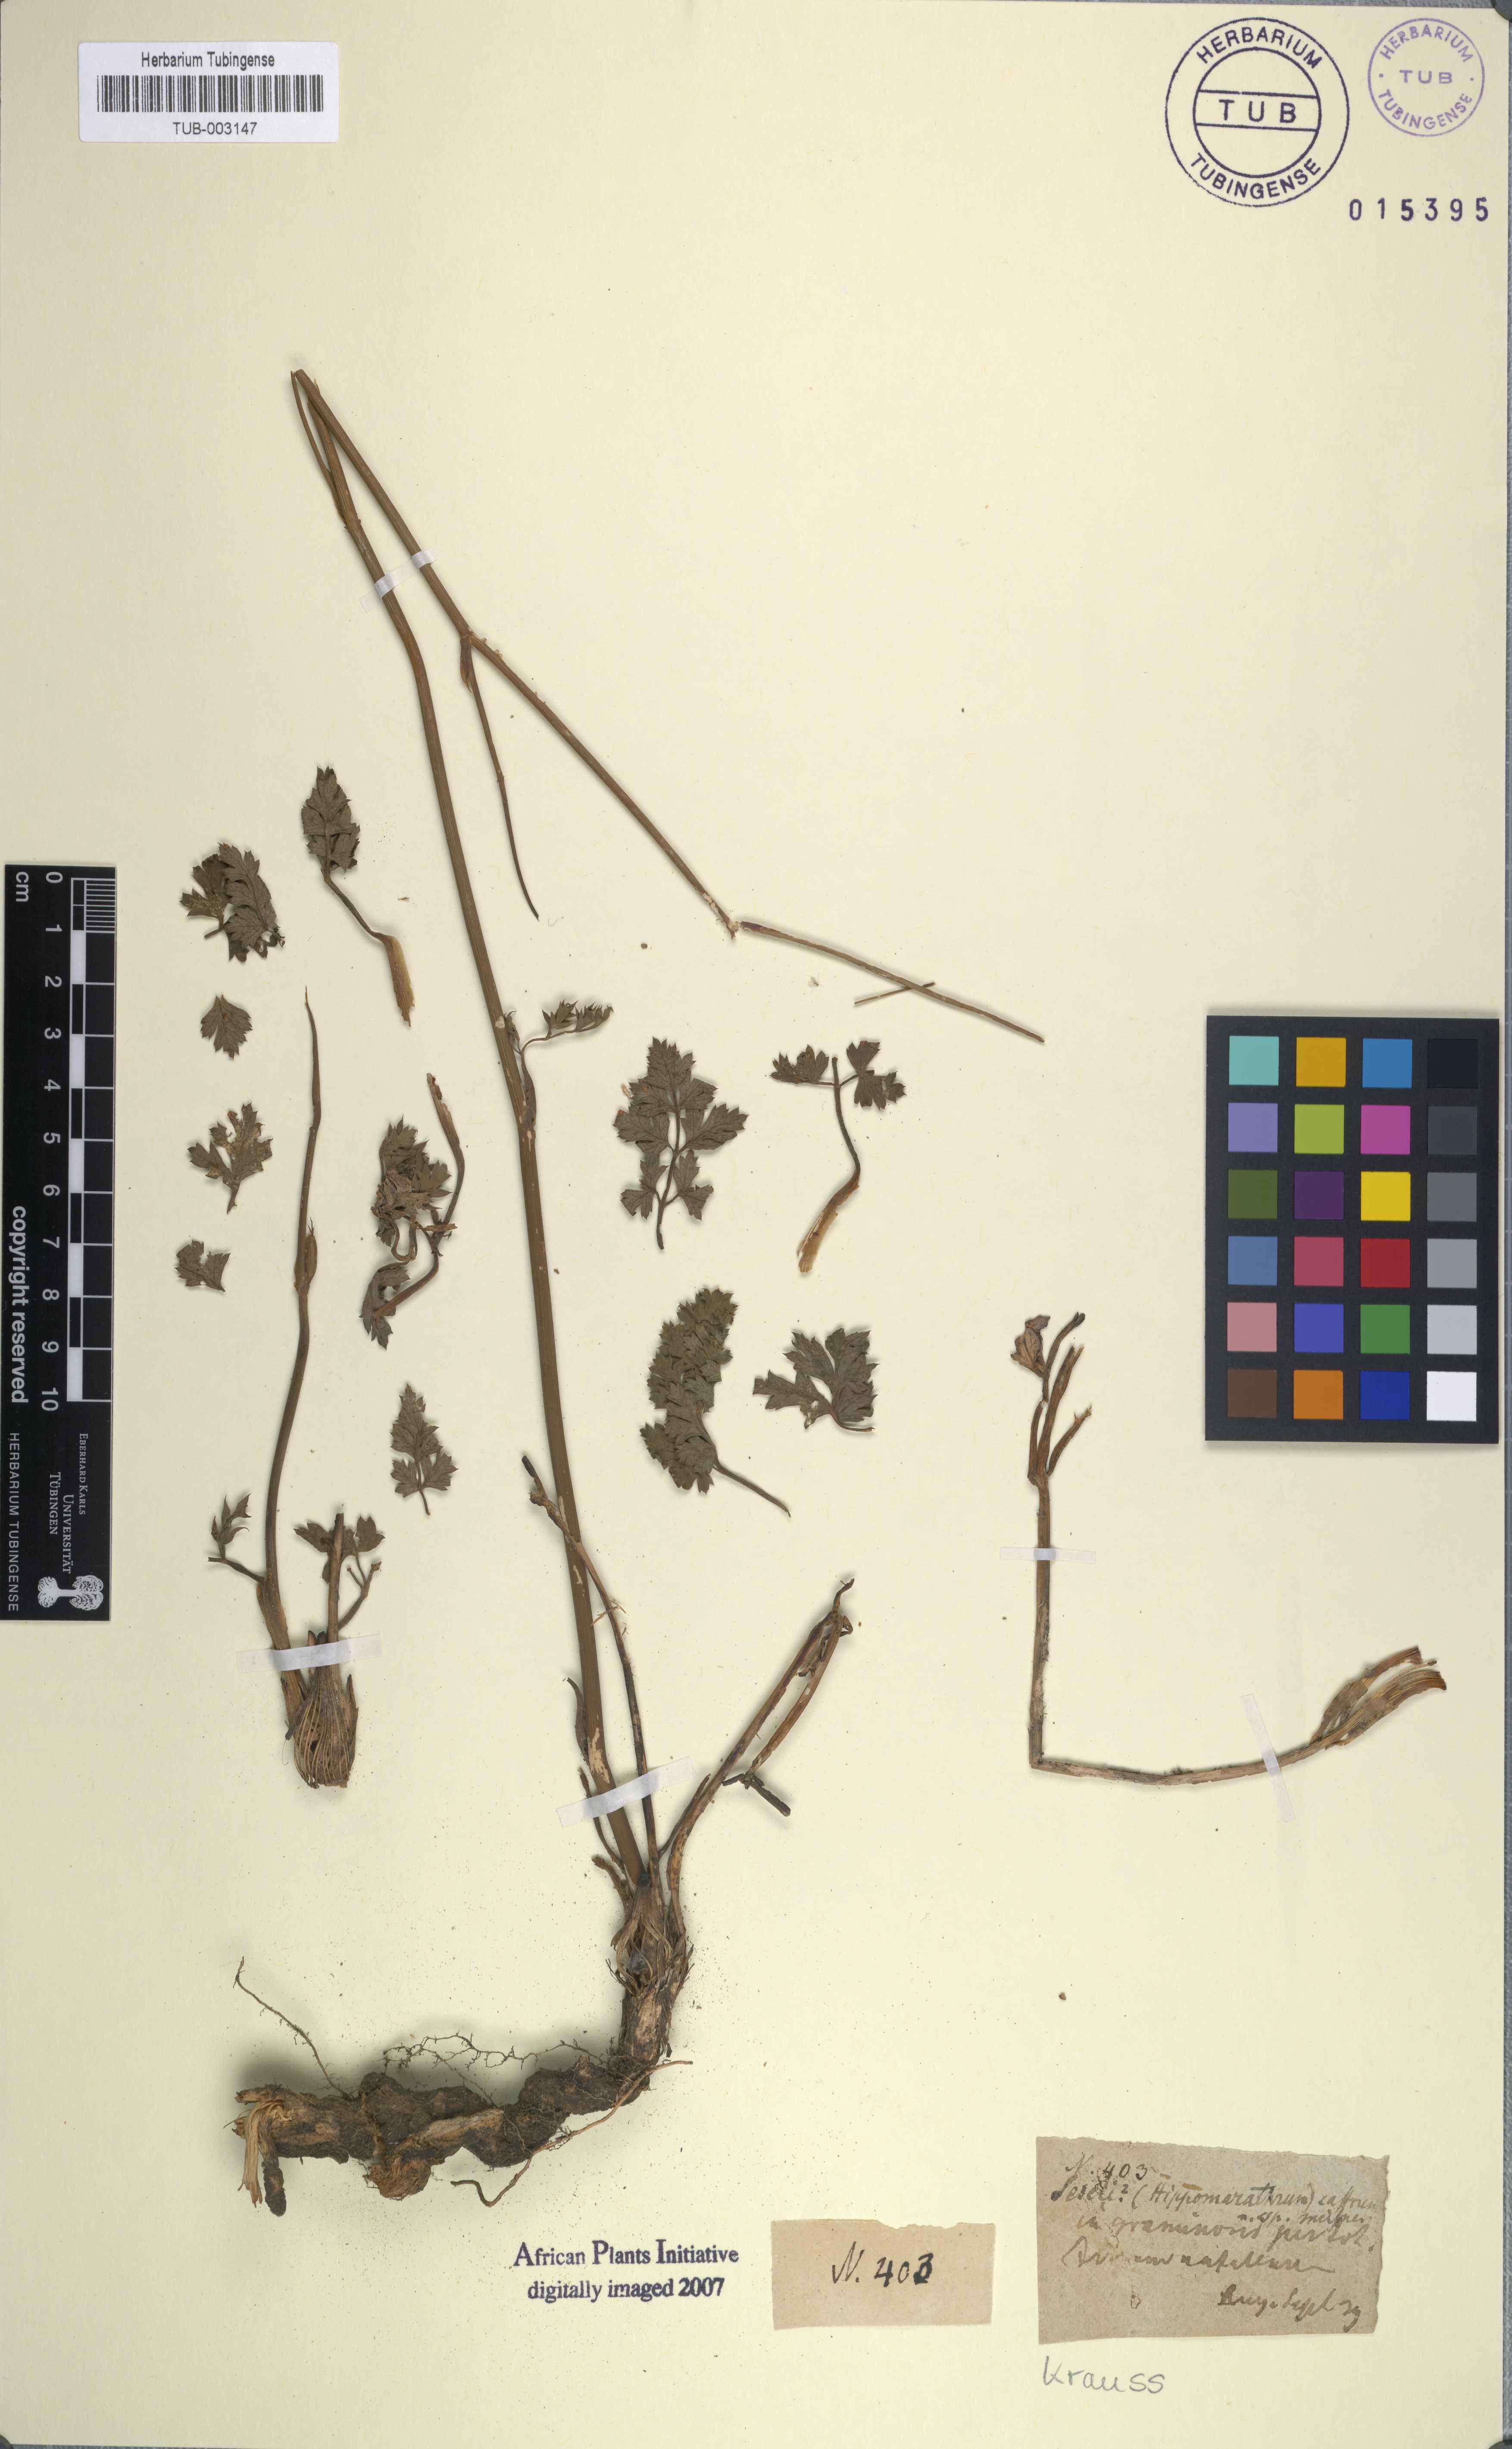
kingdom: Plantae
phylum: Tracheophyta
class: Magnoliopsida
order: Apiales
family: Apiaceae
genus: Afrosciadium
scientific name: Afrosciadium caffrum
